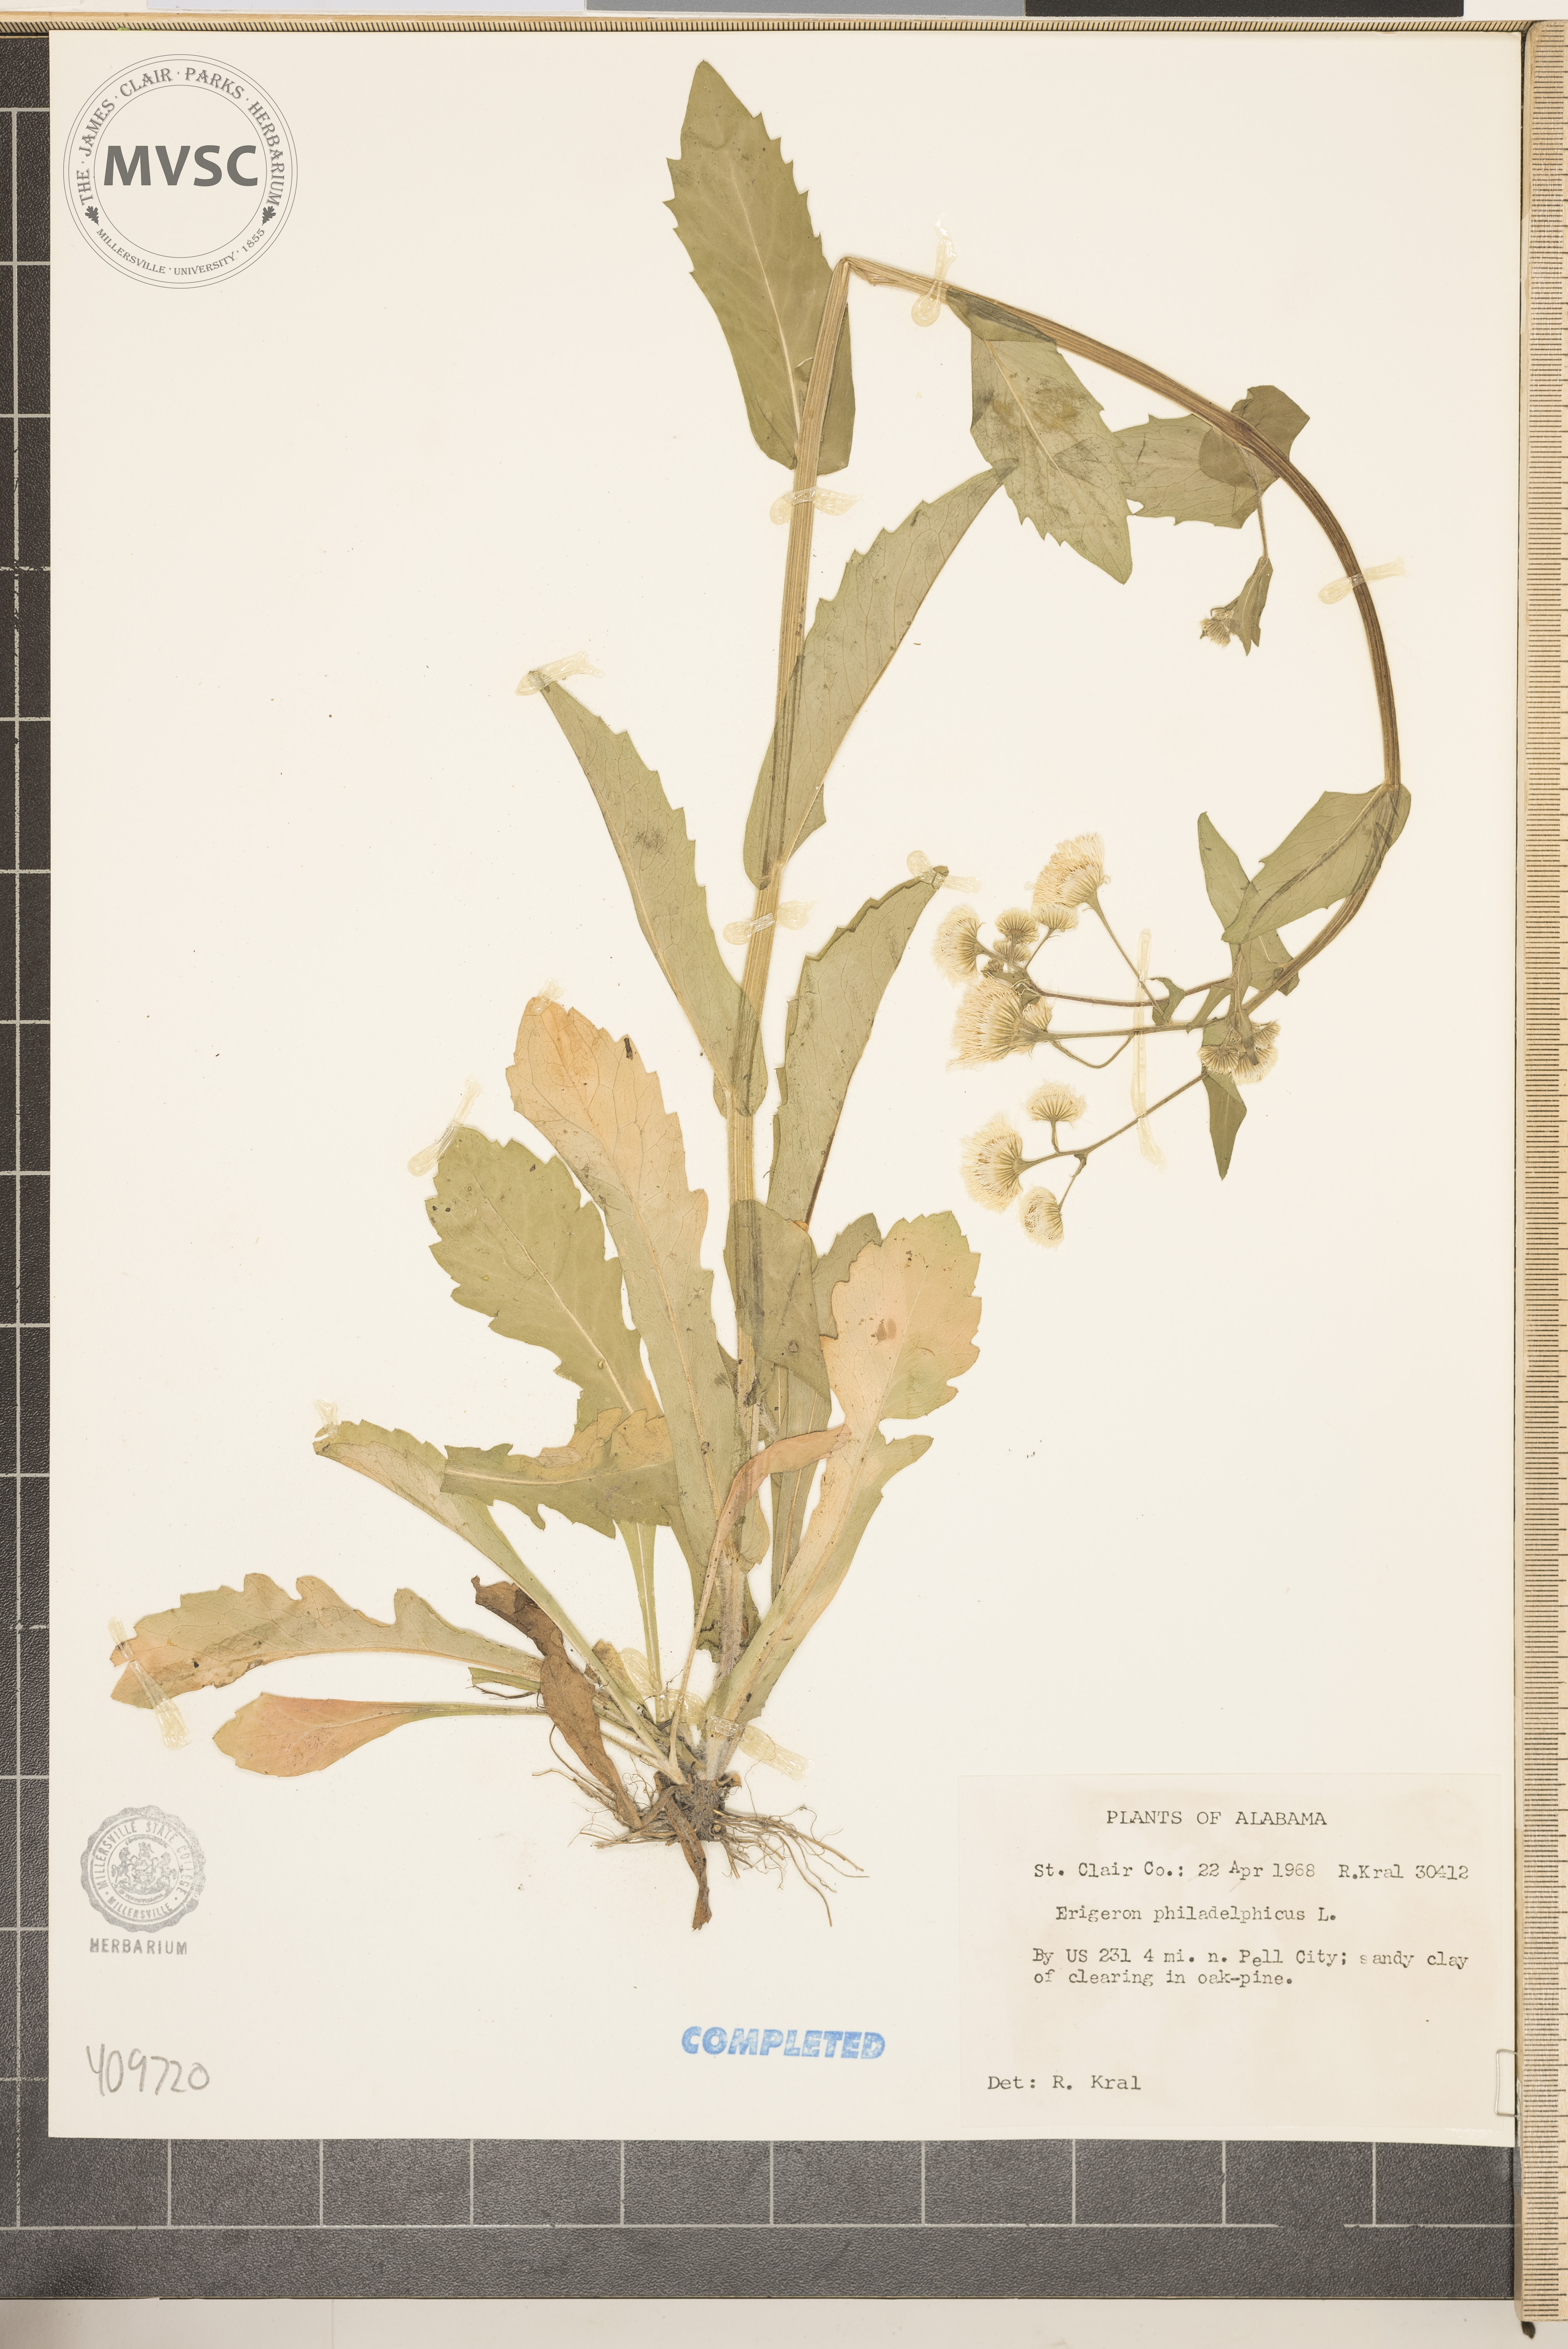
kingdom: Plantae
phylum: Tracheophyta
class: Magnoliopsida
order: Asterales
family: Asteraceae
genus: Erigeron
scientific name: Erigeron philadelphicus
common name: Robin's-plantain
